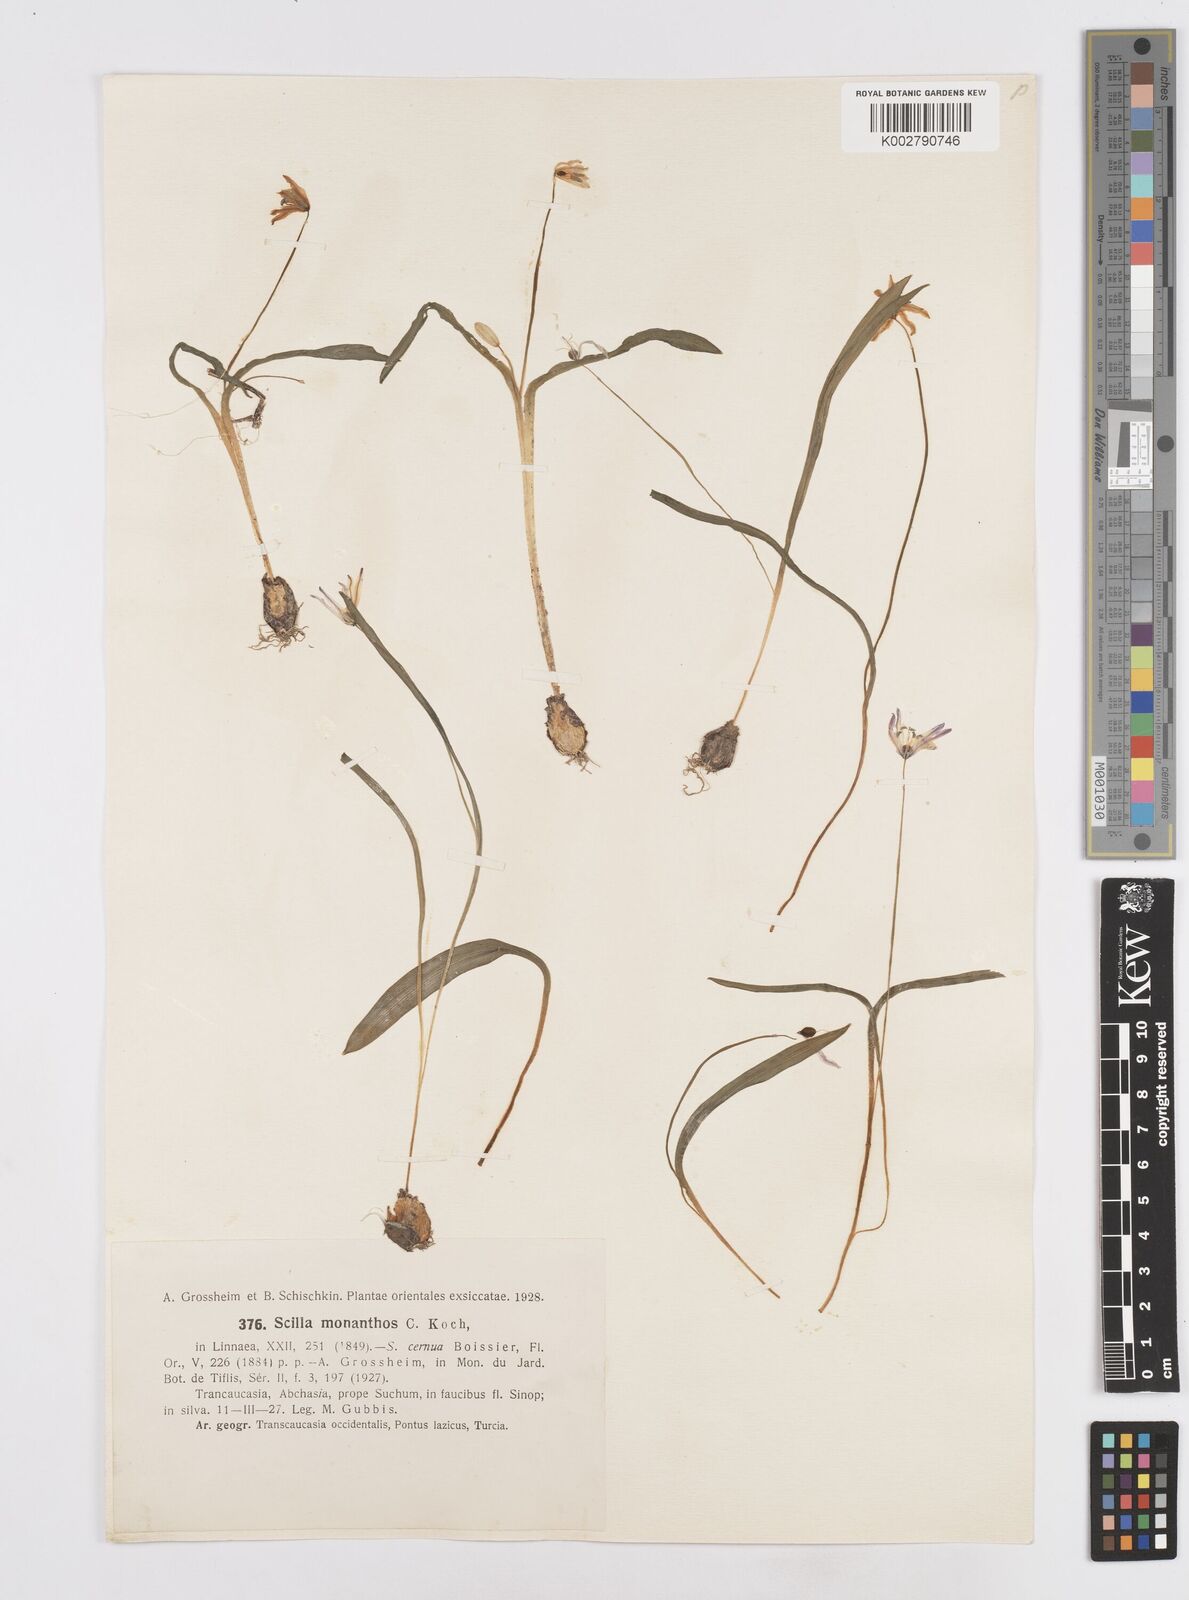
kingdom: Plantae
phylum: Tracheophyta
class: Liliopsida
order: Asparagales
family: Asparagaceae
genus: Scilla
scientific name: Scilla monanthos
